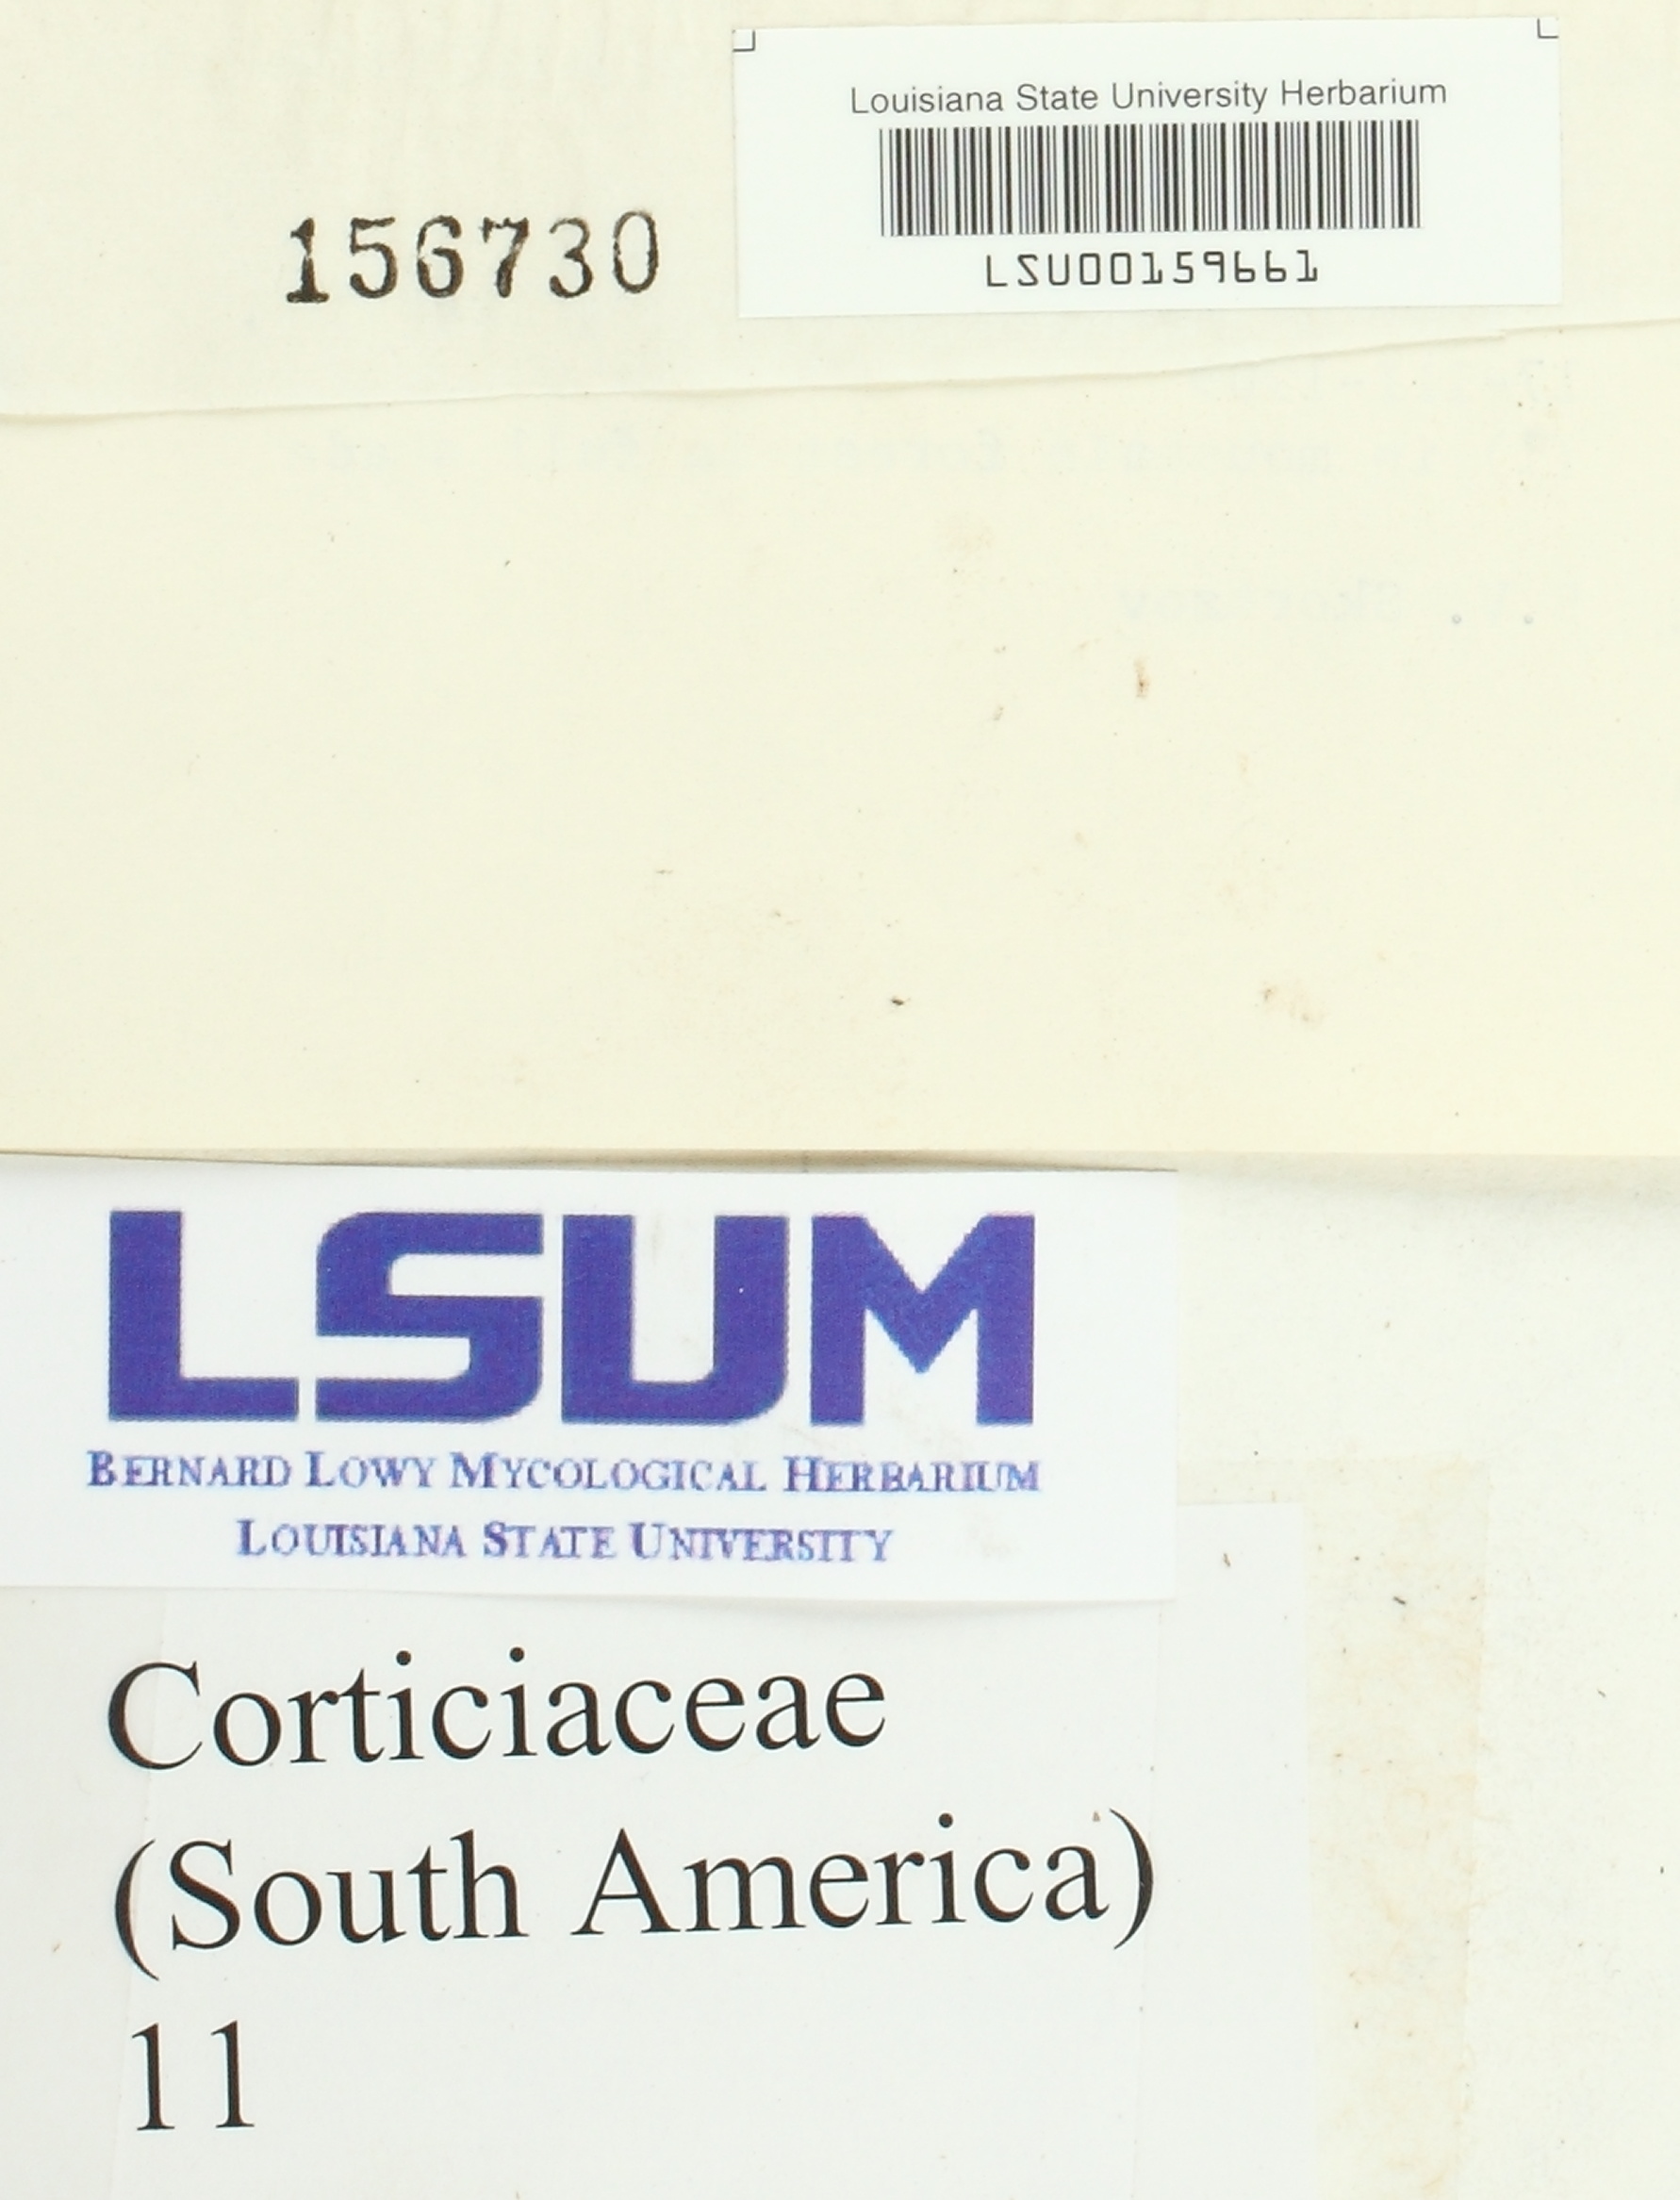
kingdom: Fungi
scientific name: Fungi
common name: Fungi
